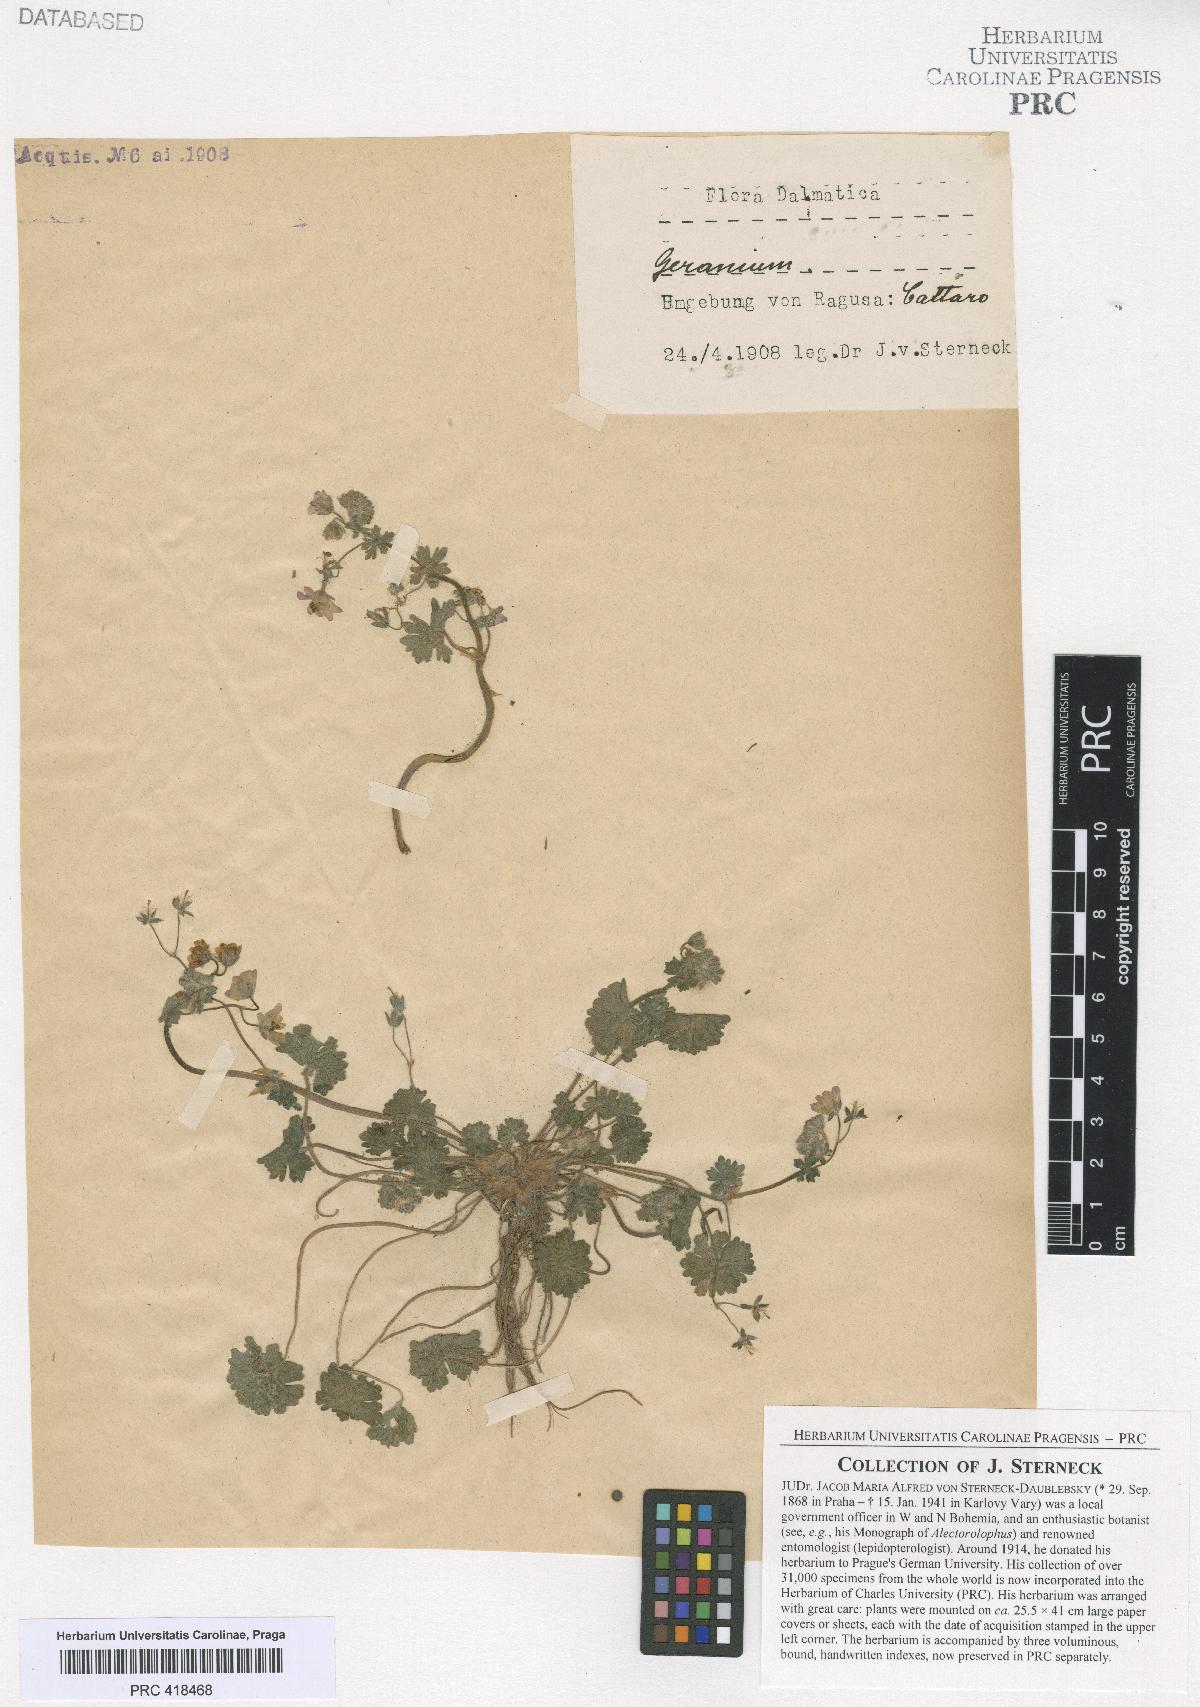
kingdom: Plantae
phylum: Tracheophyta
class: Magnoliopsida
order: Geraniales
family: Geraniaceae
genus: Geranium
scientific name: Geranium molle
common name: Dove's-foot crane's-bill
